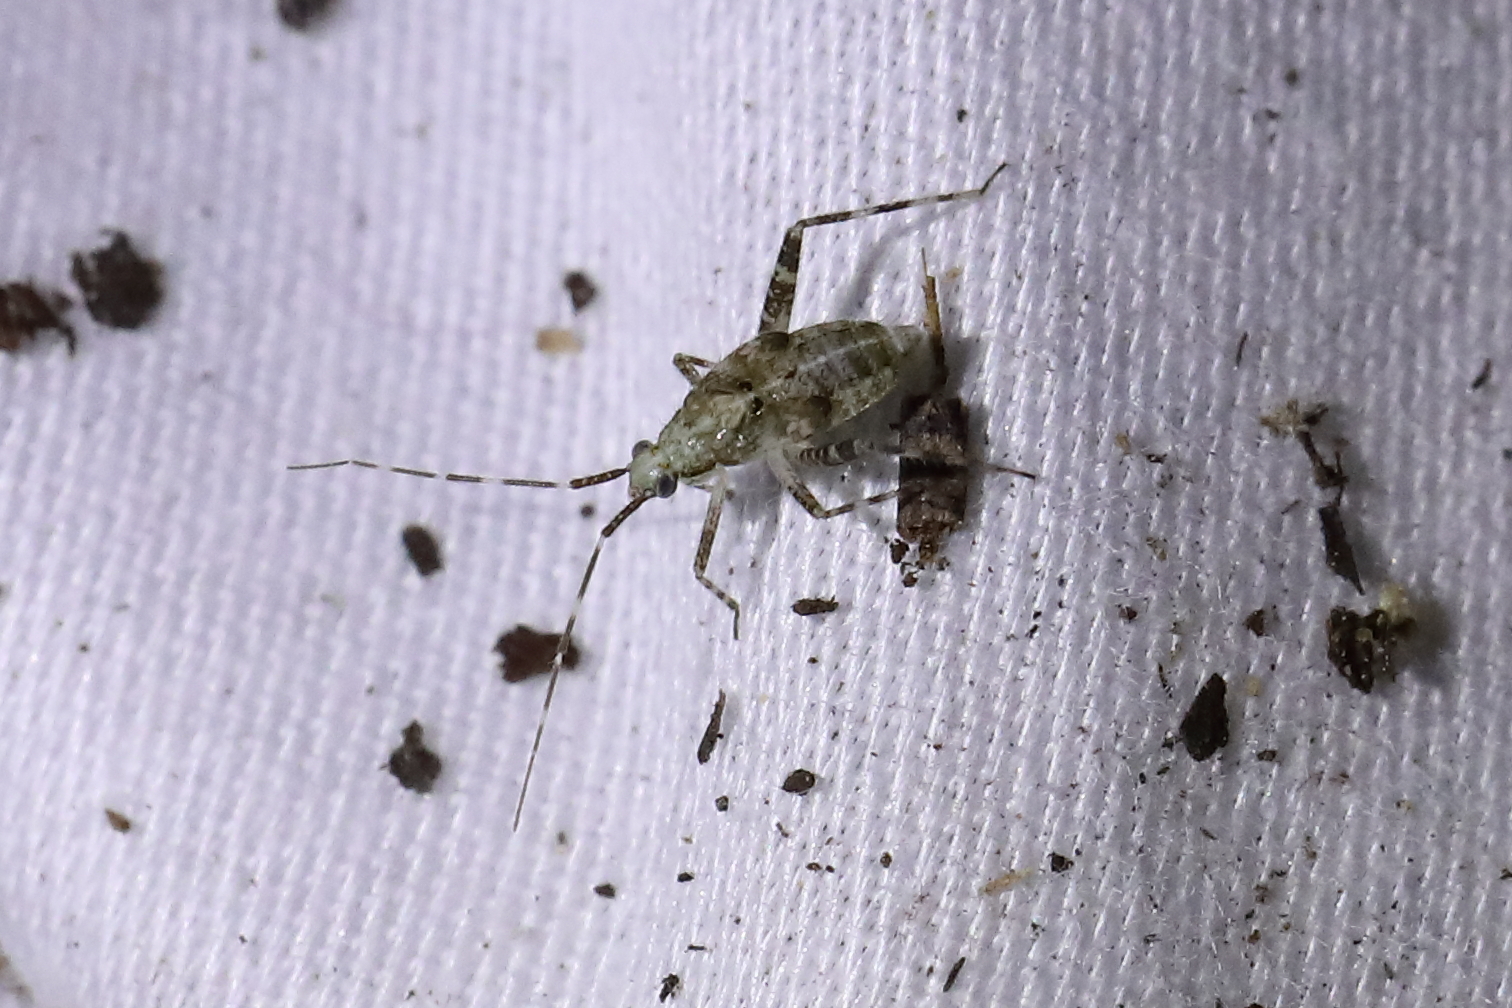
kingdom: Animalia
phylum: Arthropoda
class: Insecta
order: Hemiptera
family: Miridae
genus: Phytocoris
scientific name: Phytocoris longipennis
